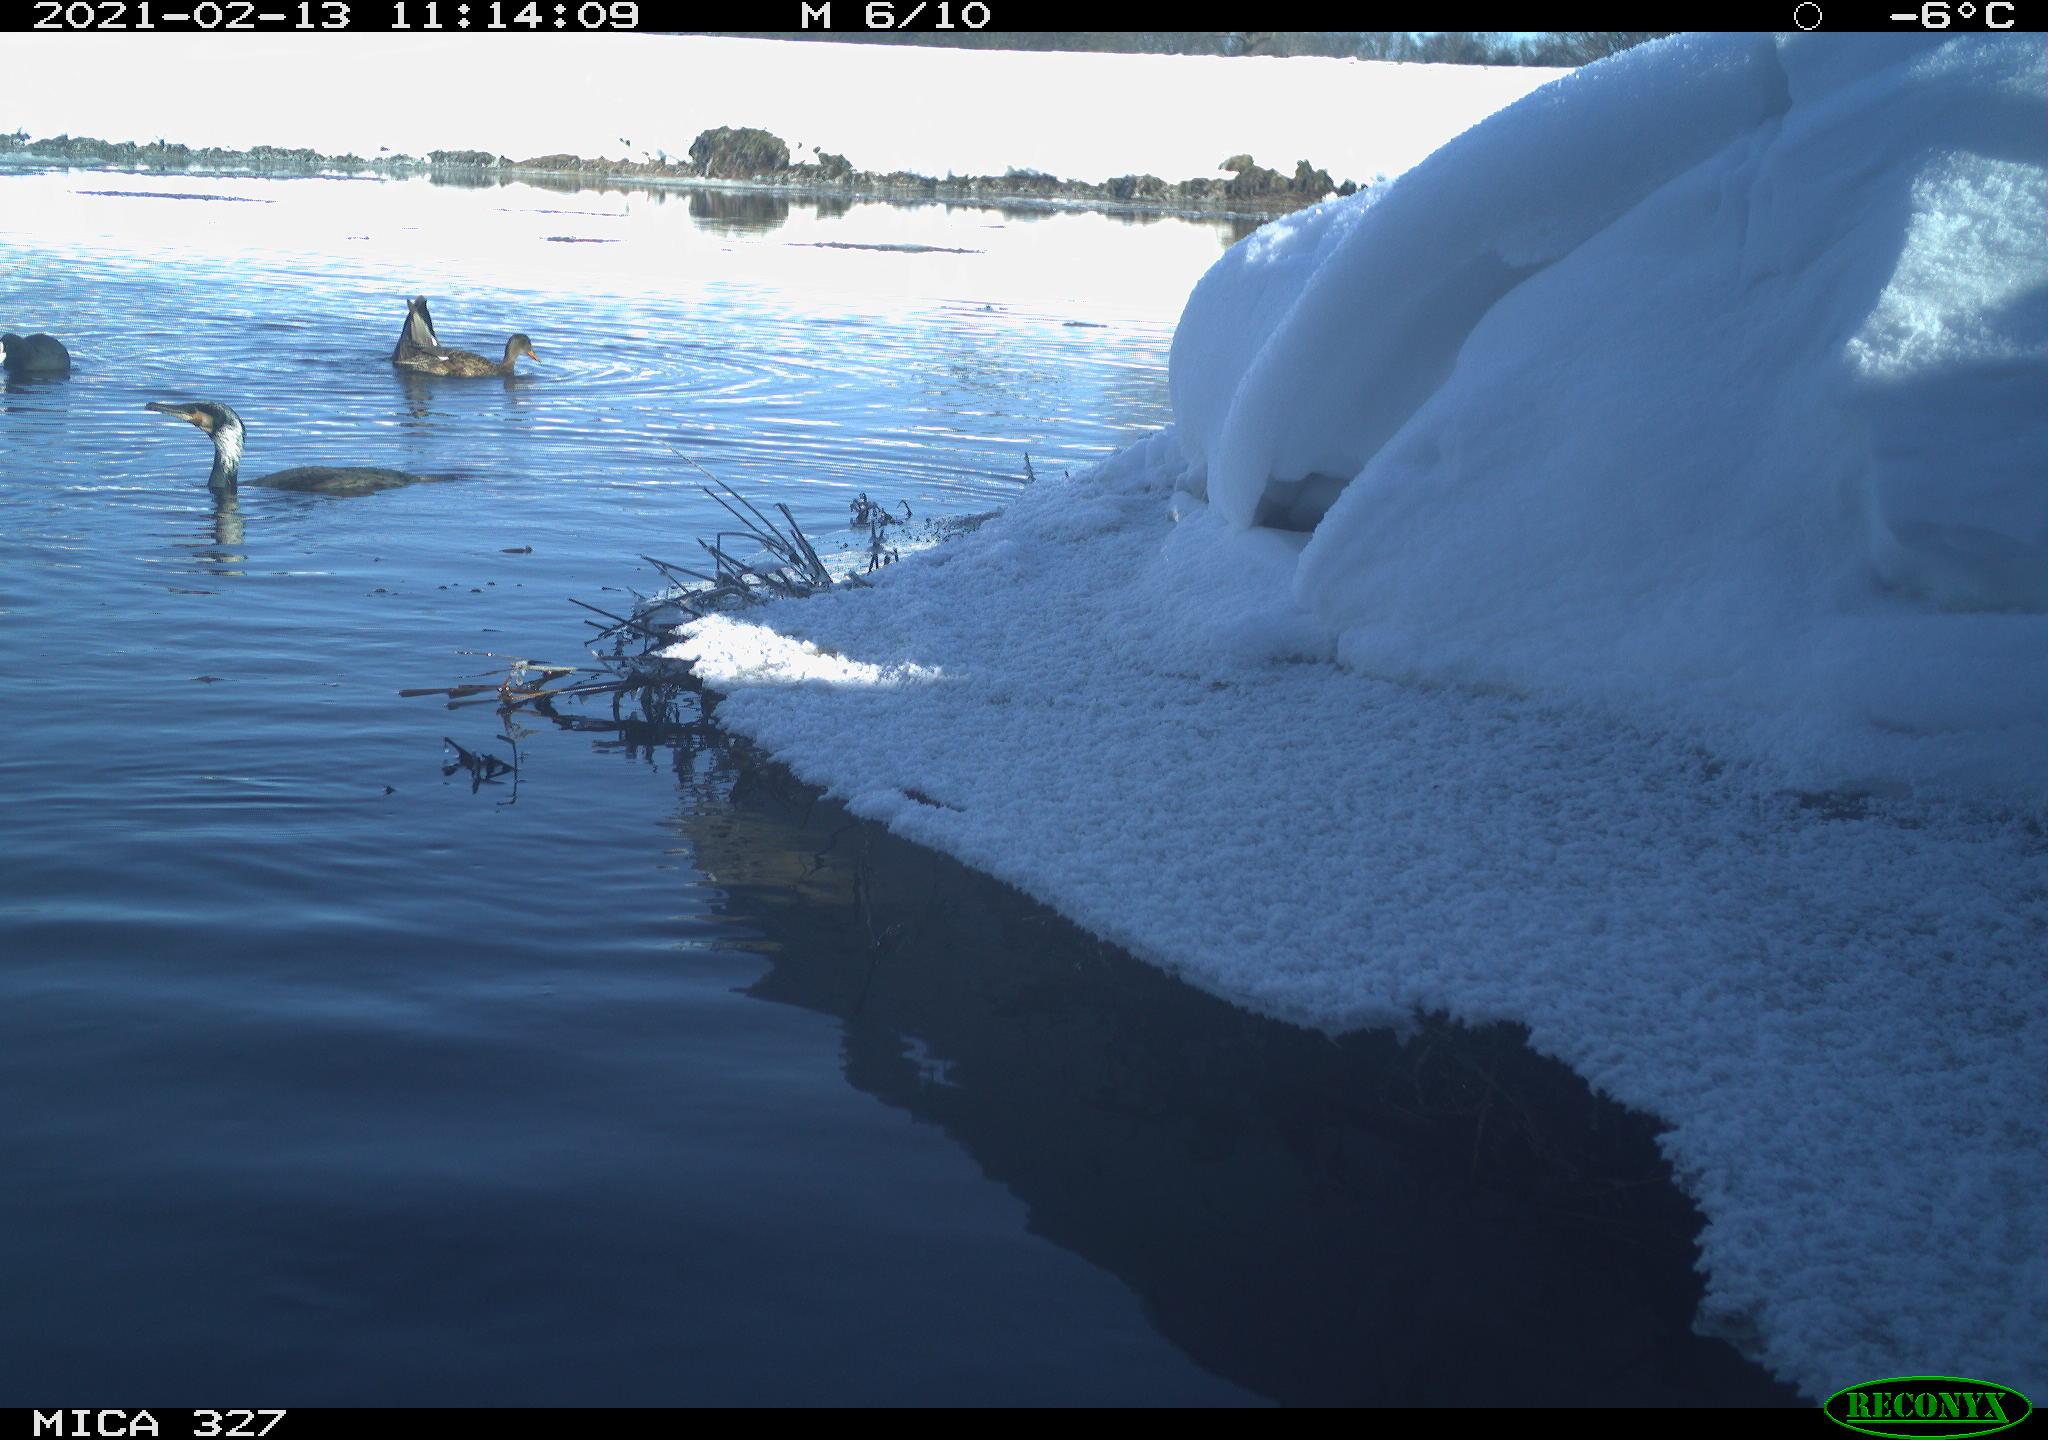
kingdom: Animalia
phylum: Chordata
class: Aves
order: Suliformes
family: Phalacrocoracidae
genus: Phalacrocorax
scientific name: Phalacrocorax carbo
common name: Great cormorant
